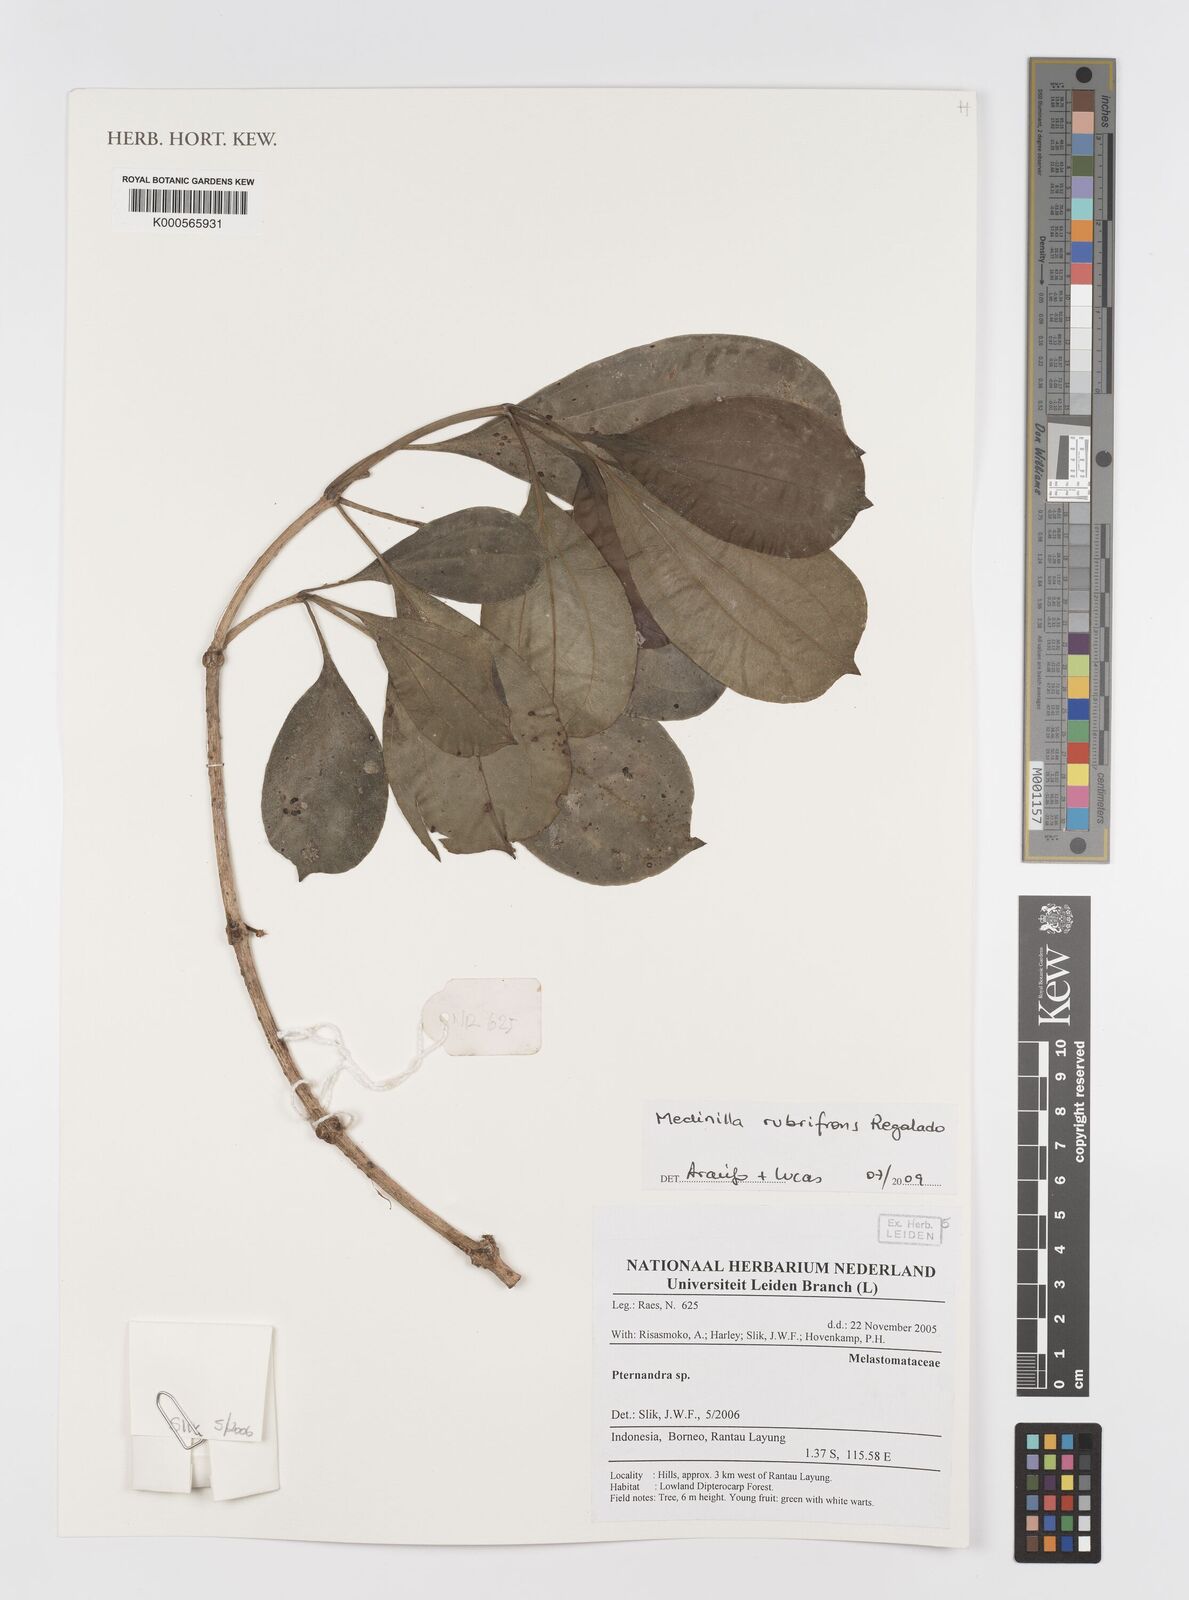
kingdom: Plantae
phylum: Tracheophyta
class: Magnoliopsida
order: Myrtales
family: Melastomataceae
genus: Medinilla
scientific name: Medinilla rubrifrons
